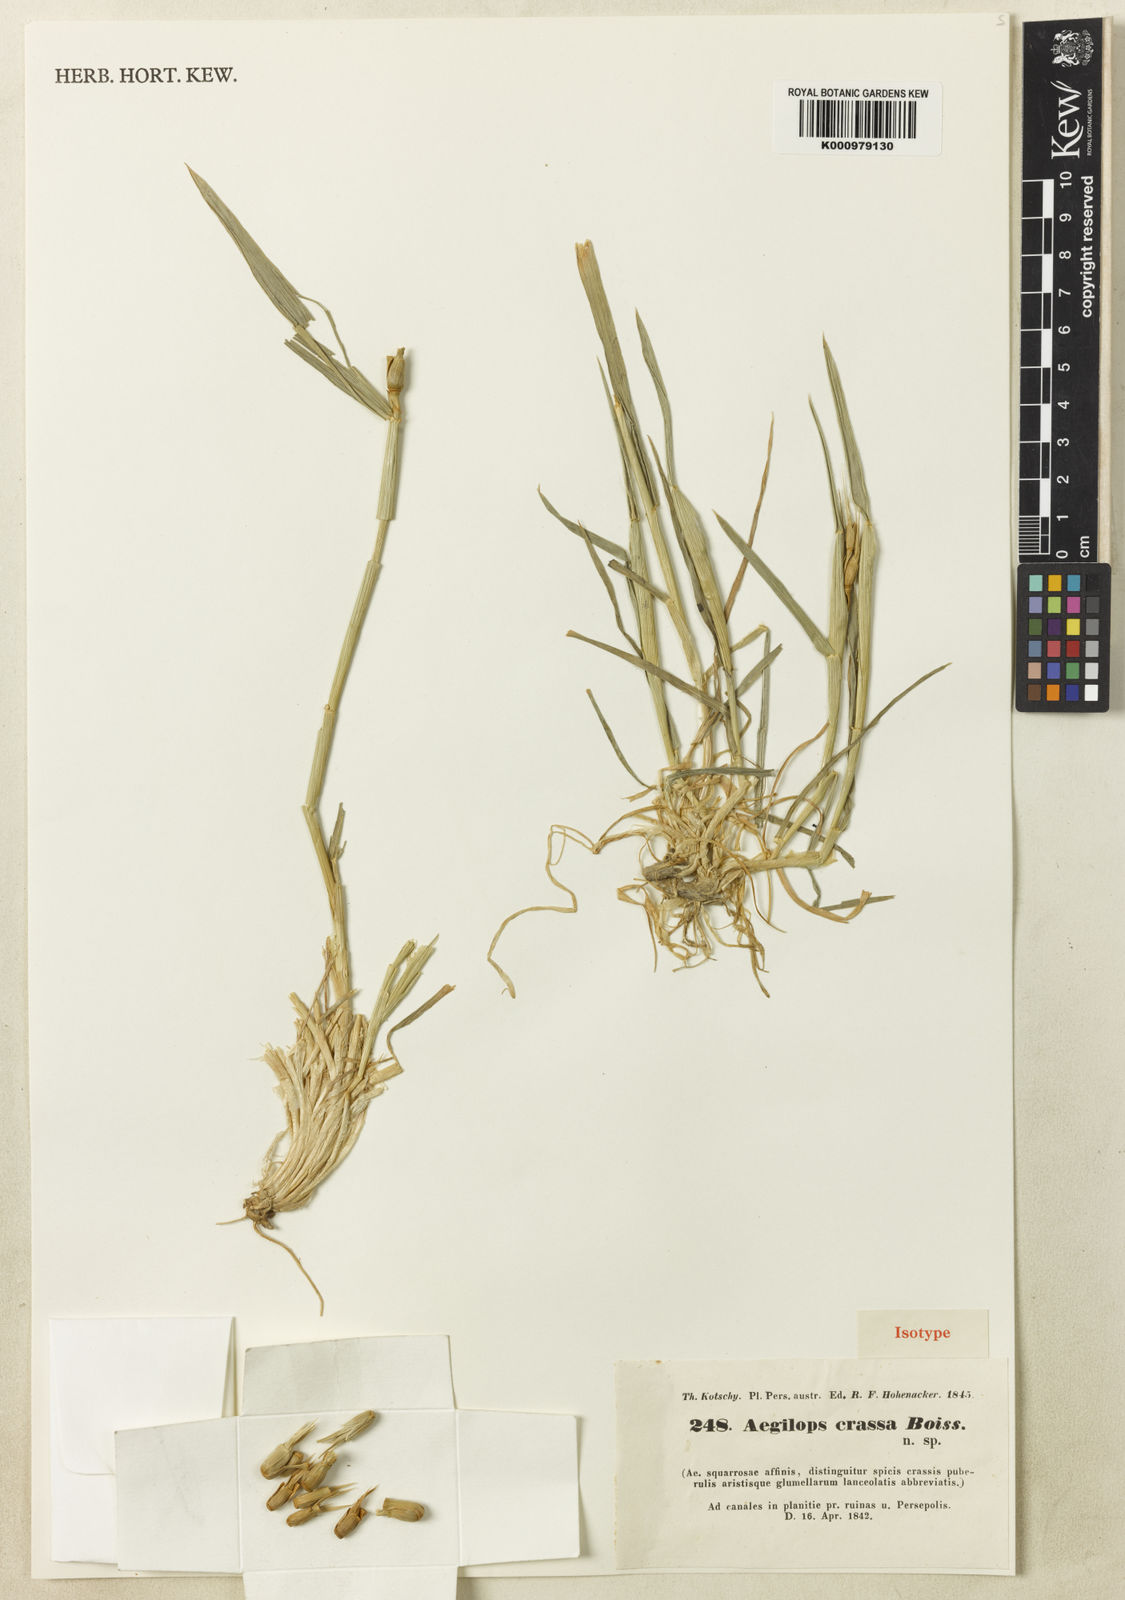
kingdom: Plantae
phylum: Tracheophyta
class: Liliopsida
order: Poales
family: Poaceae
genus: Aegilops
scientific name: Aegilops
